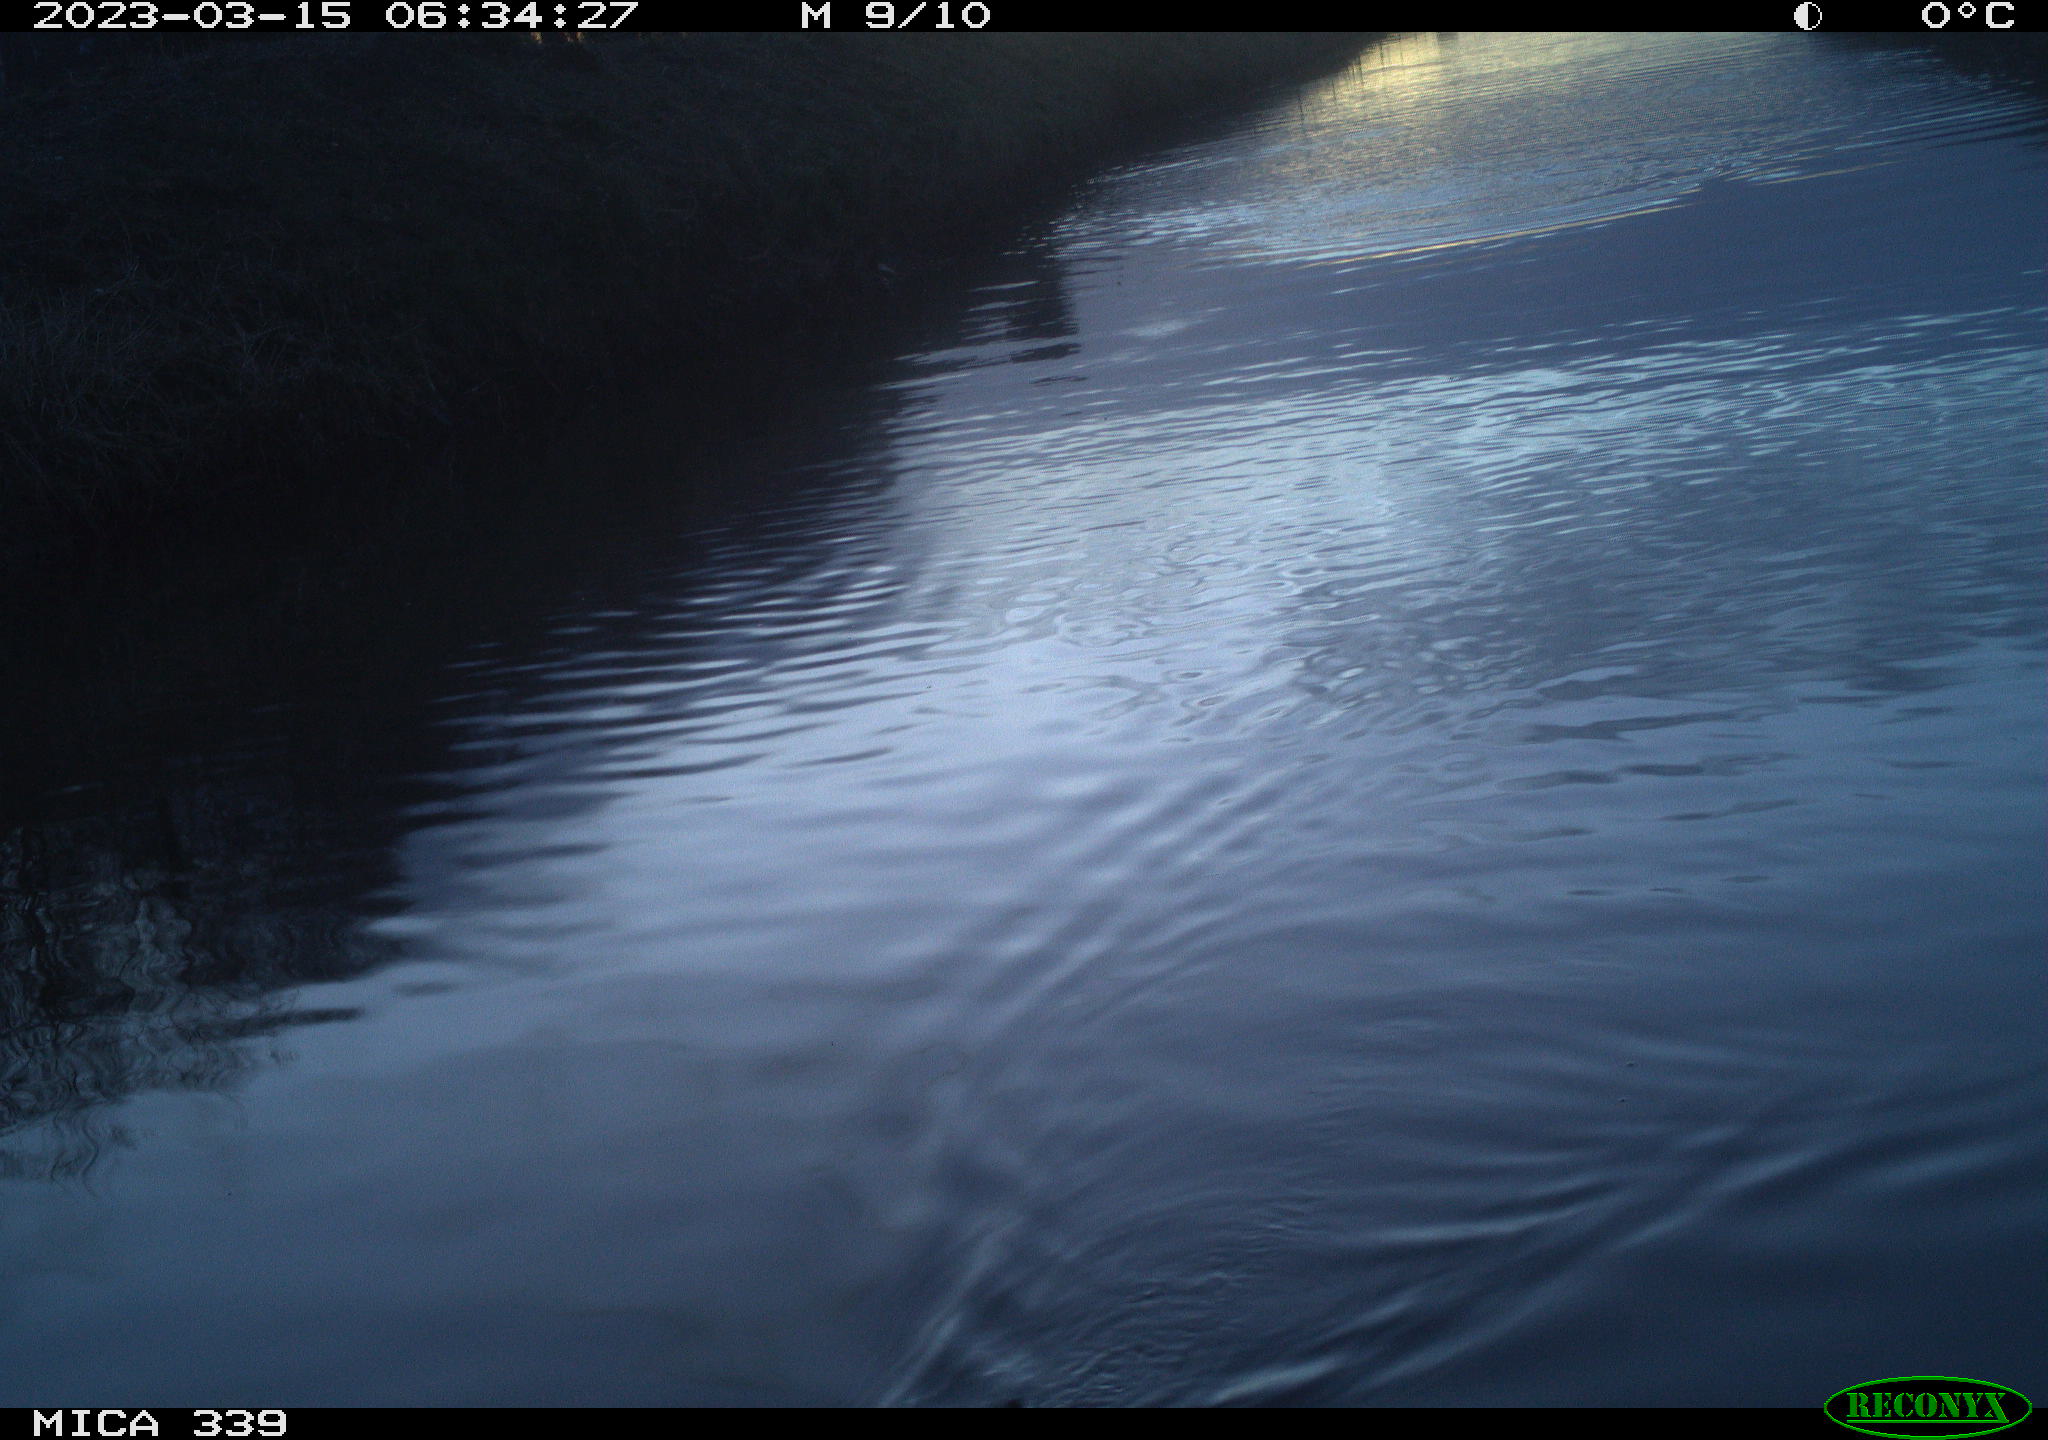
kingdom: Animalia
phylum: Chordata
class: Aves
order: Gruiformes
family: Rallidae
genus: Gallinula
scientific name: Gallinula chloropus
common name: Common moorhen
